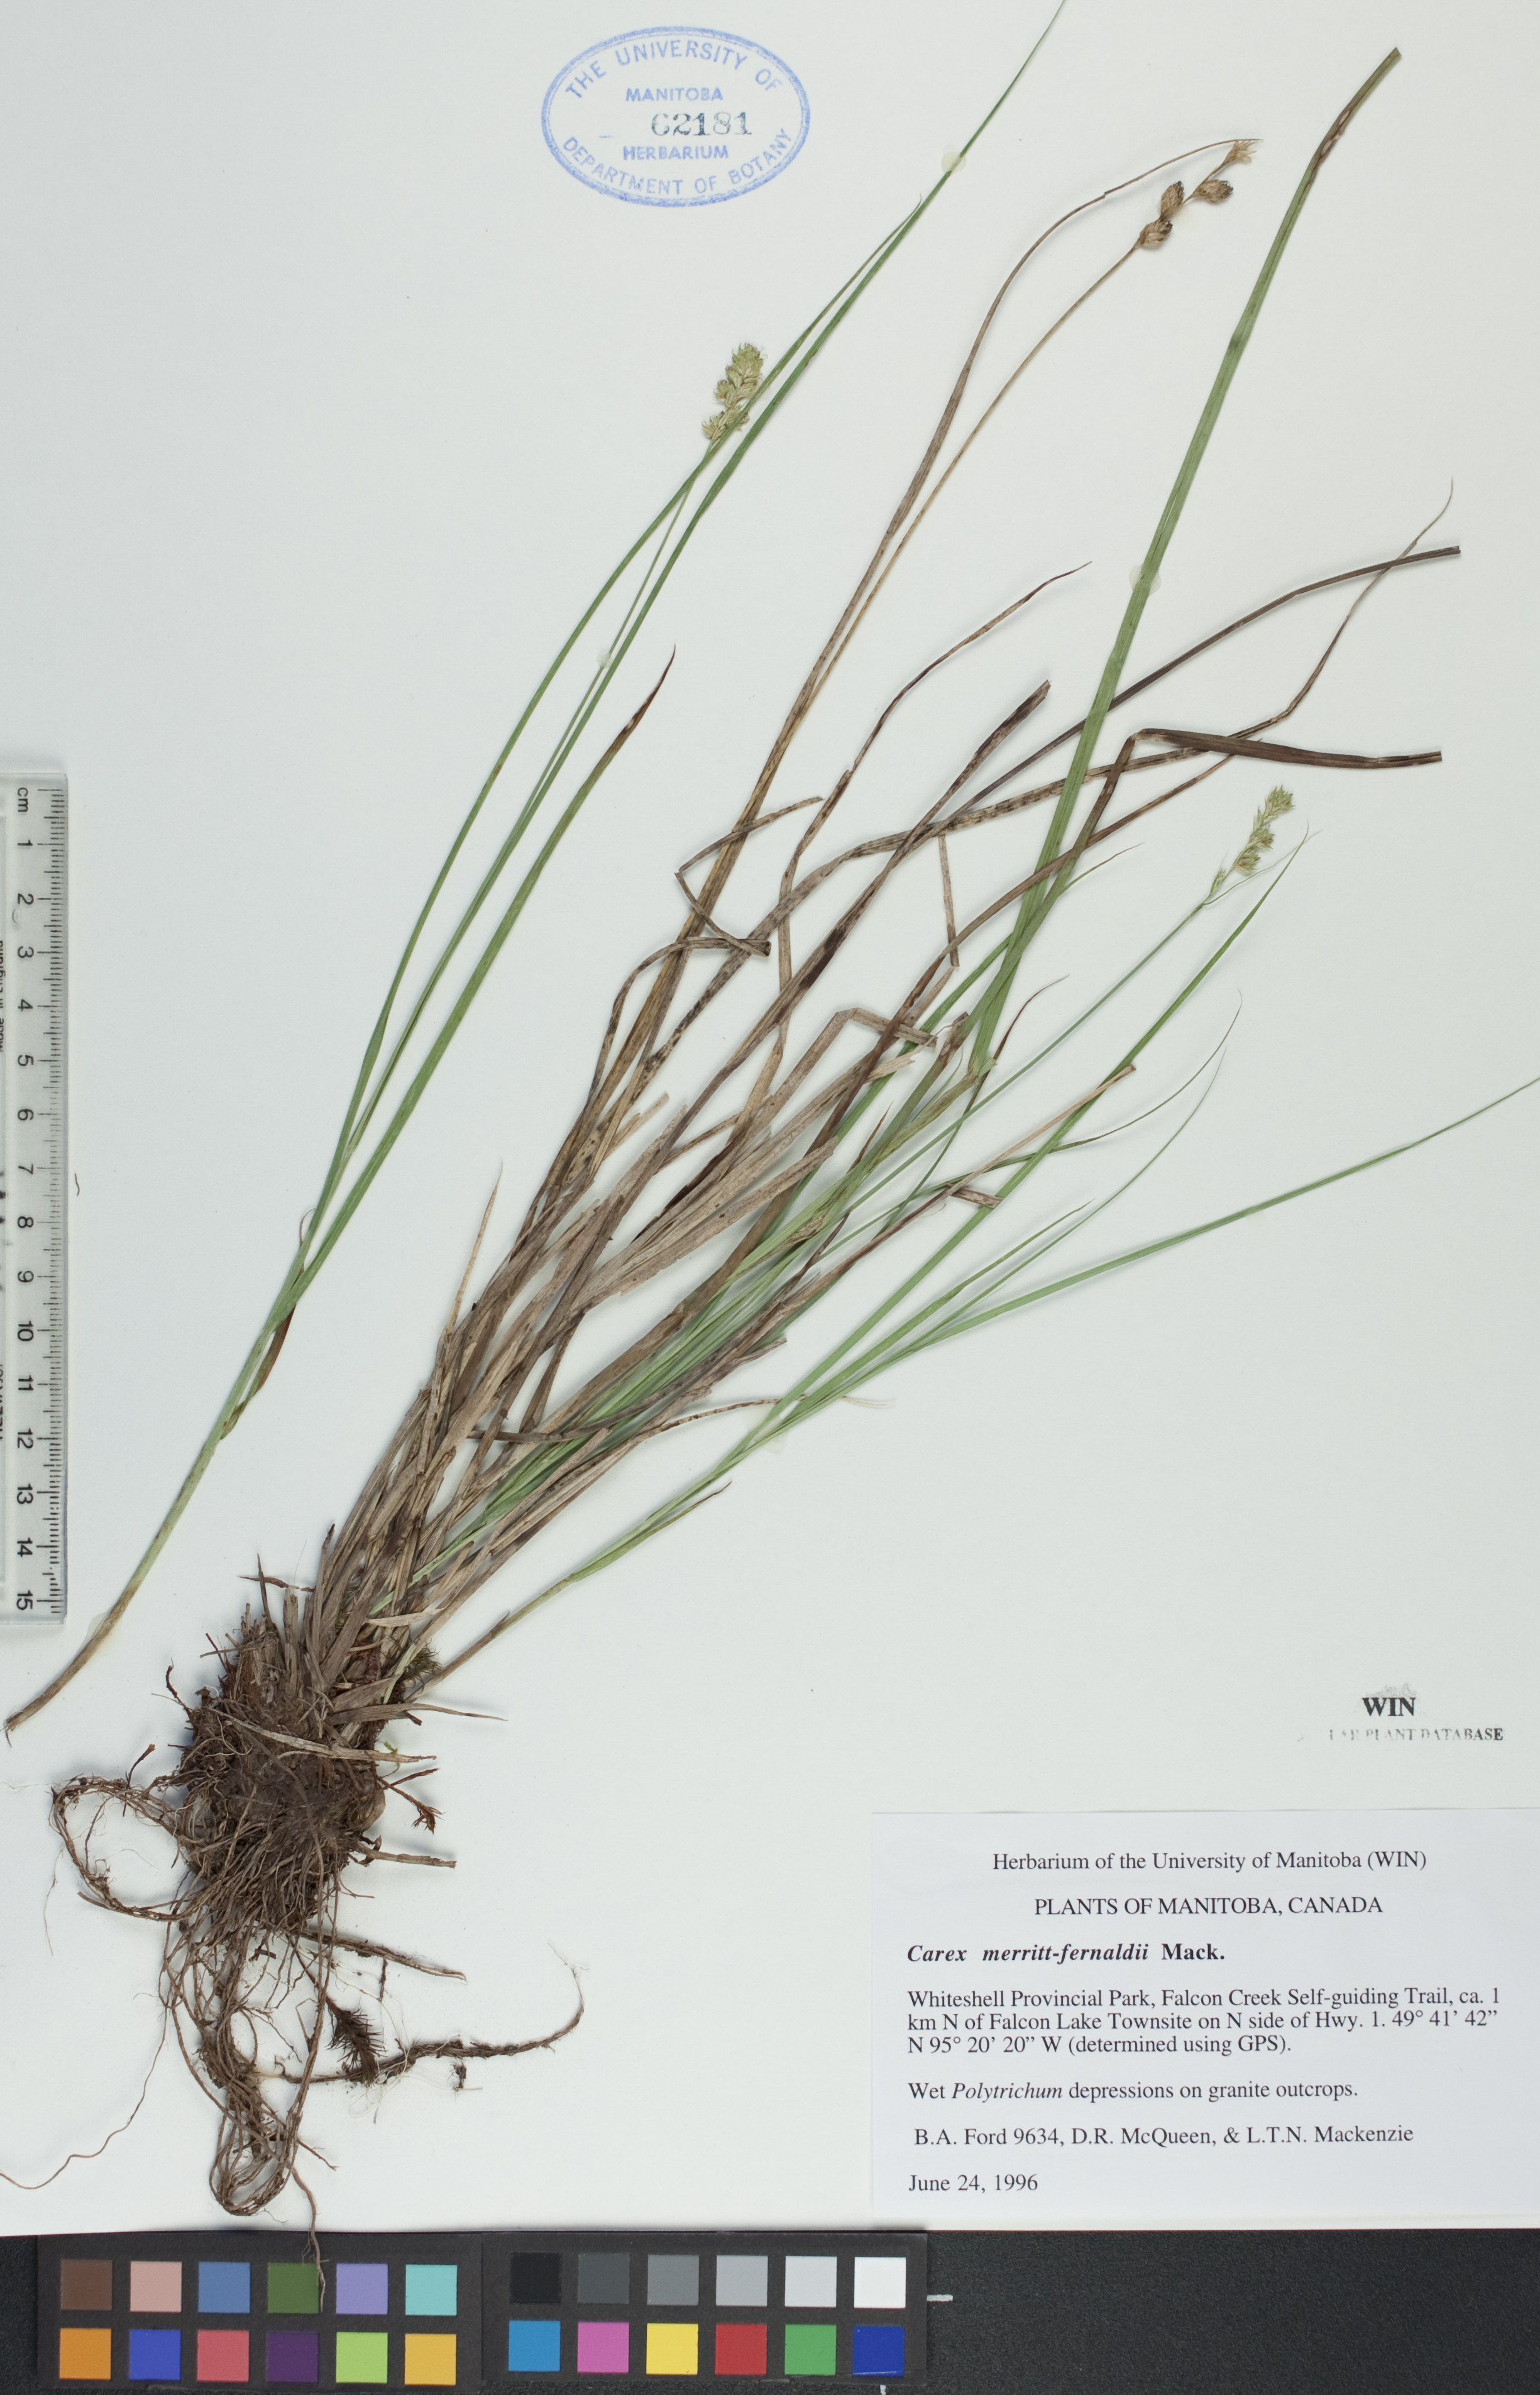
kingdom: Plantae
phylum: Tracheophyta
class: Liliopsida
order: Poales
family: Cyperaceae
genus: Carex
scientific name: Carex merritt-fernaldii
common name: Fernald's oval sedge
